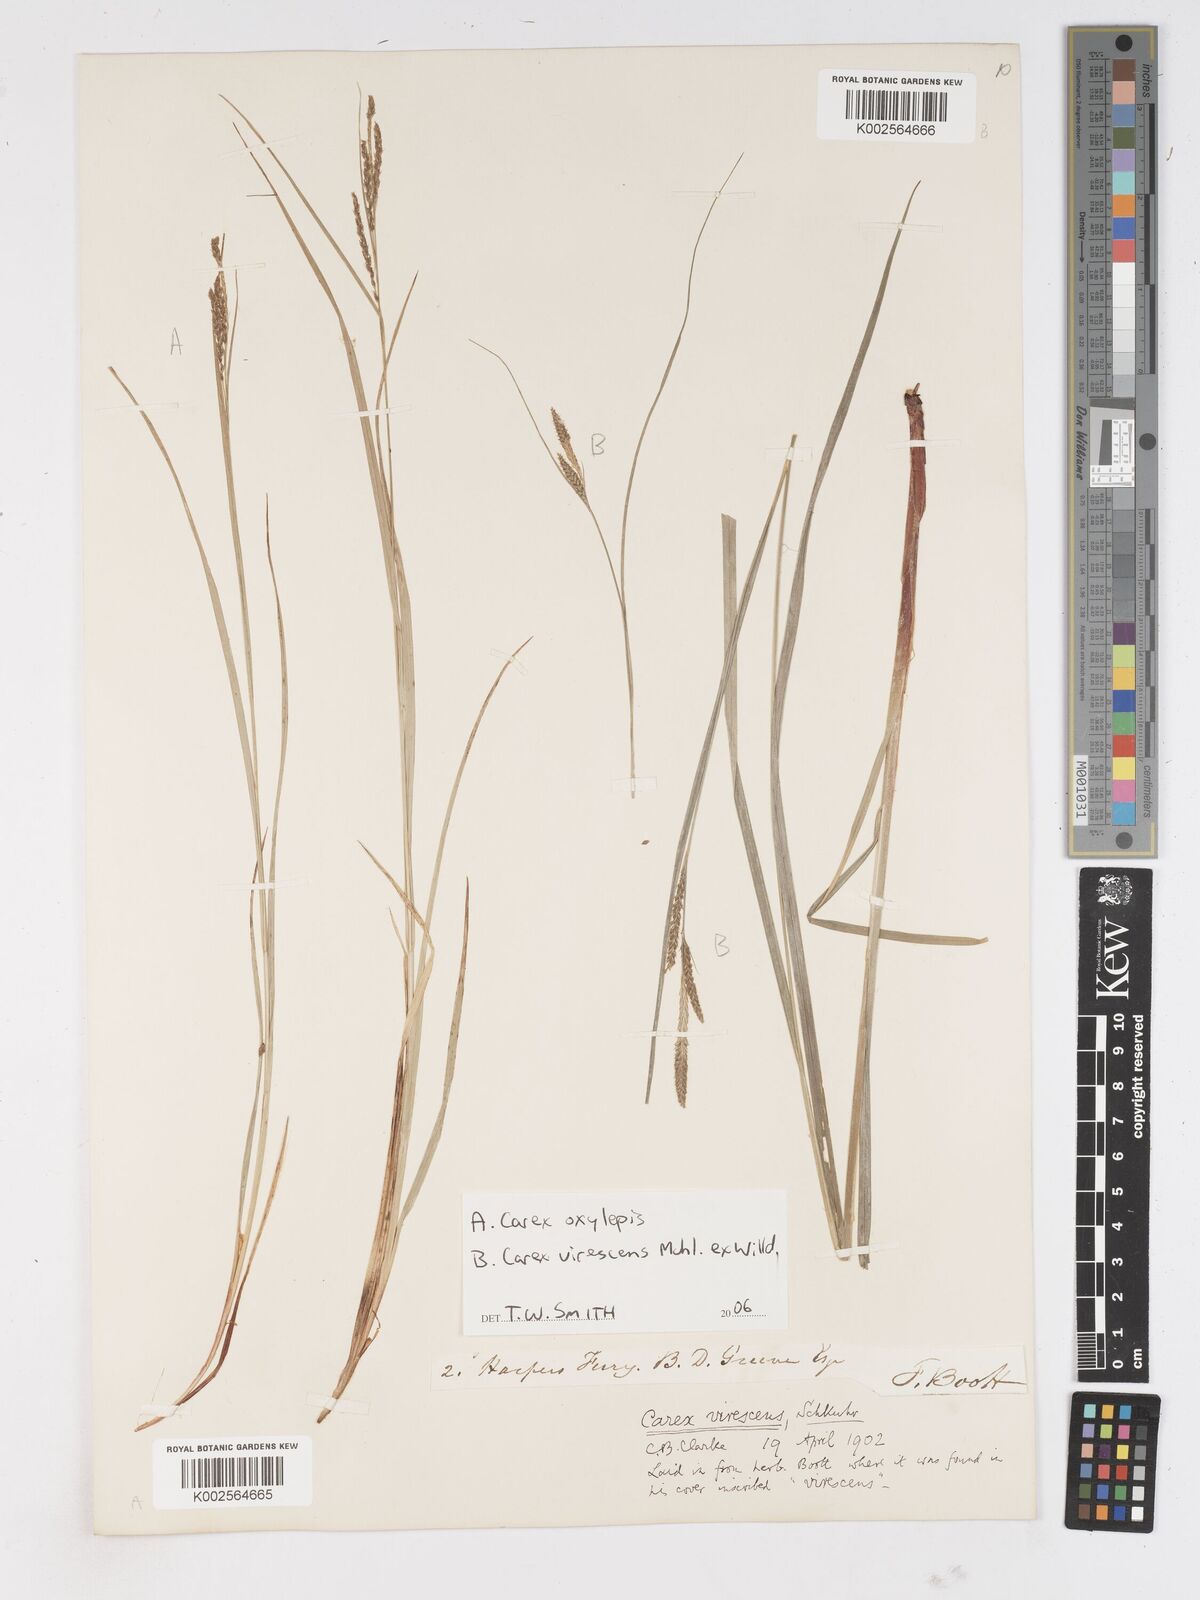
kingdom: Plantae
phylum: Tracheophyta
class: Liliopsida
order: Poales
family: Cyperaceae
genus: Carex
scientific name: Carex
